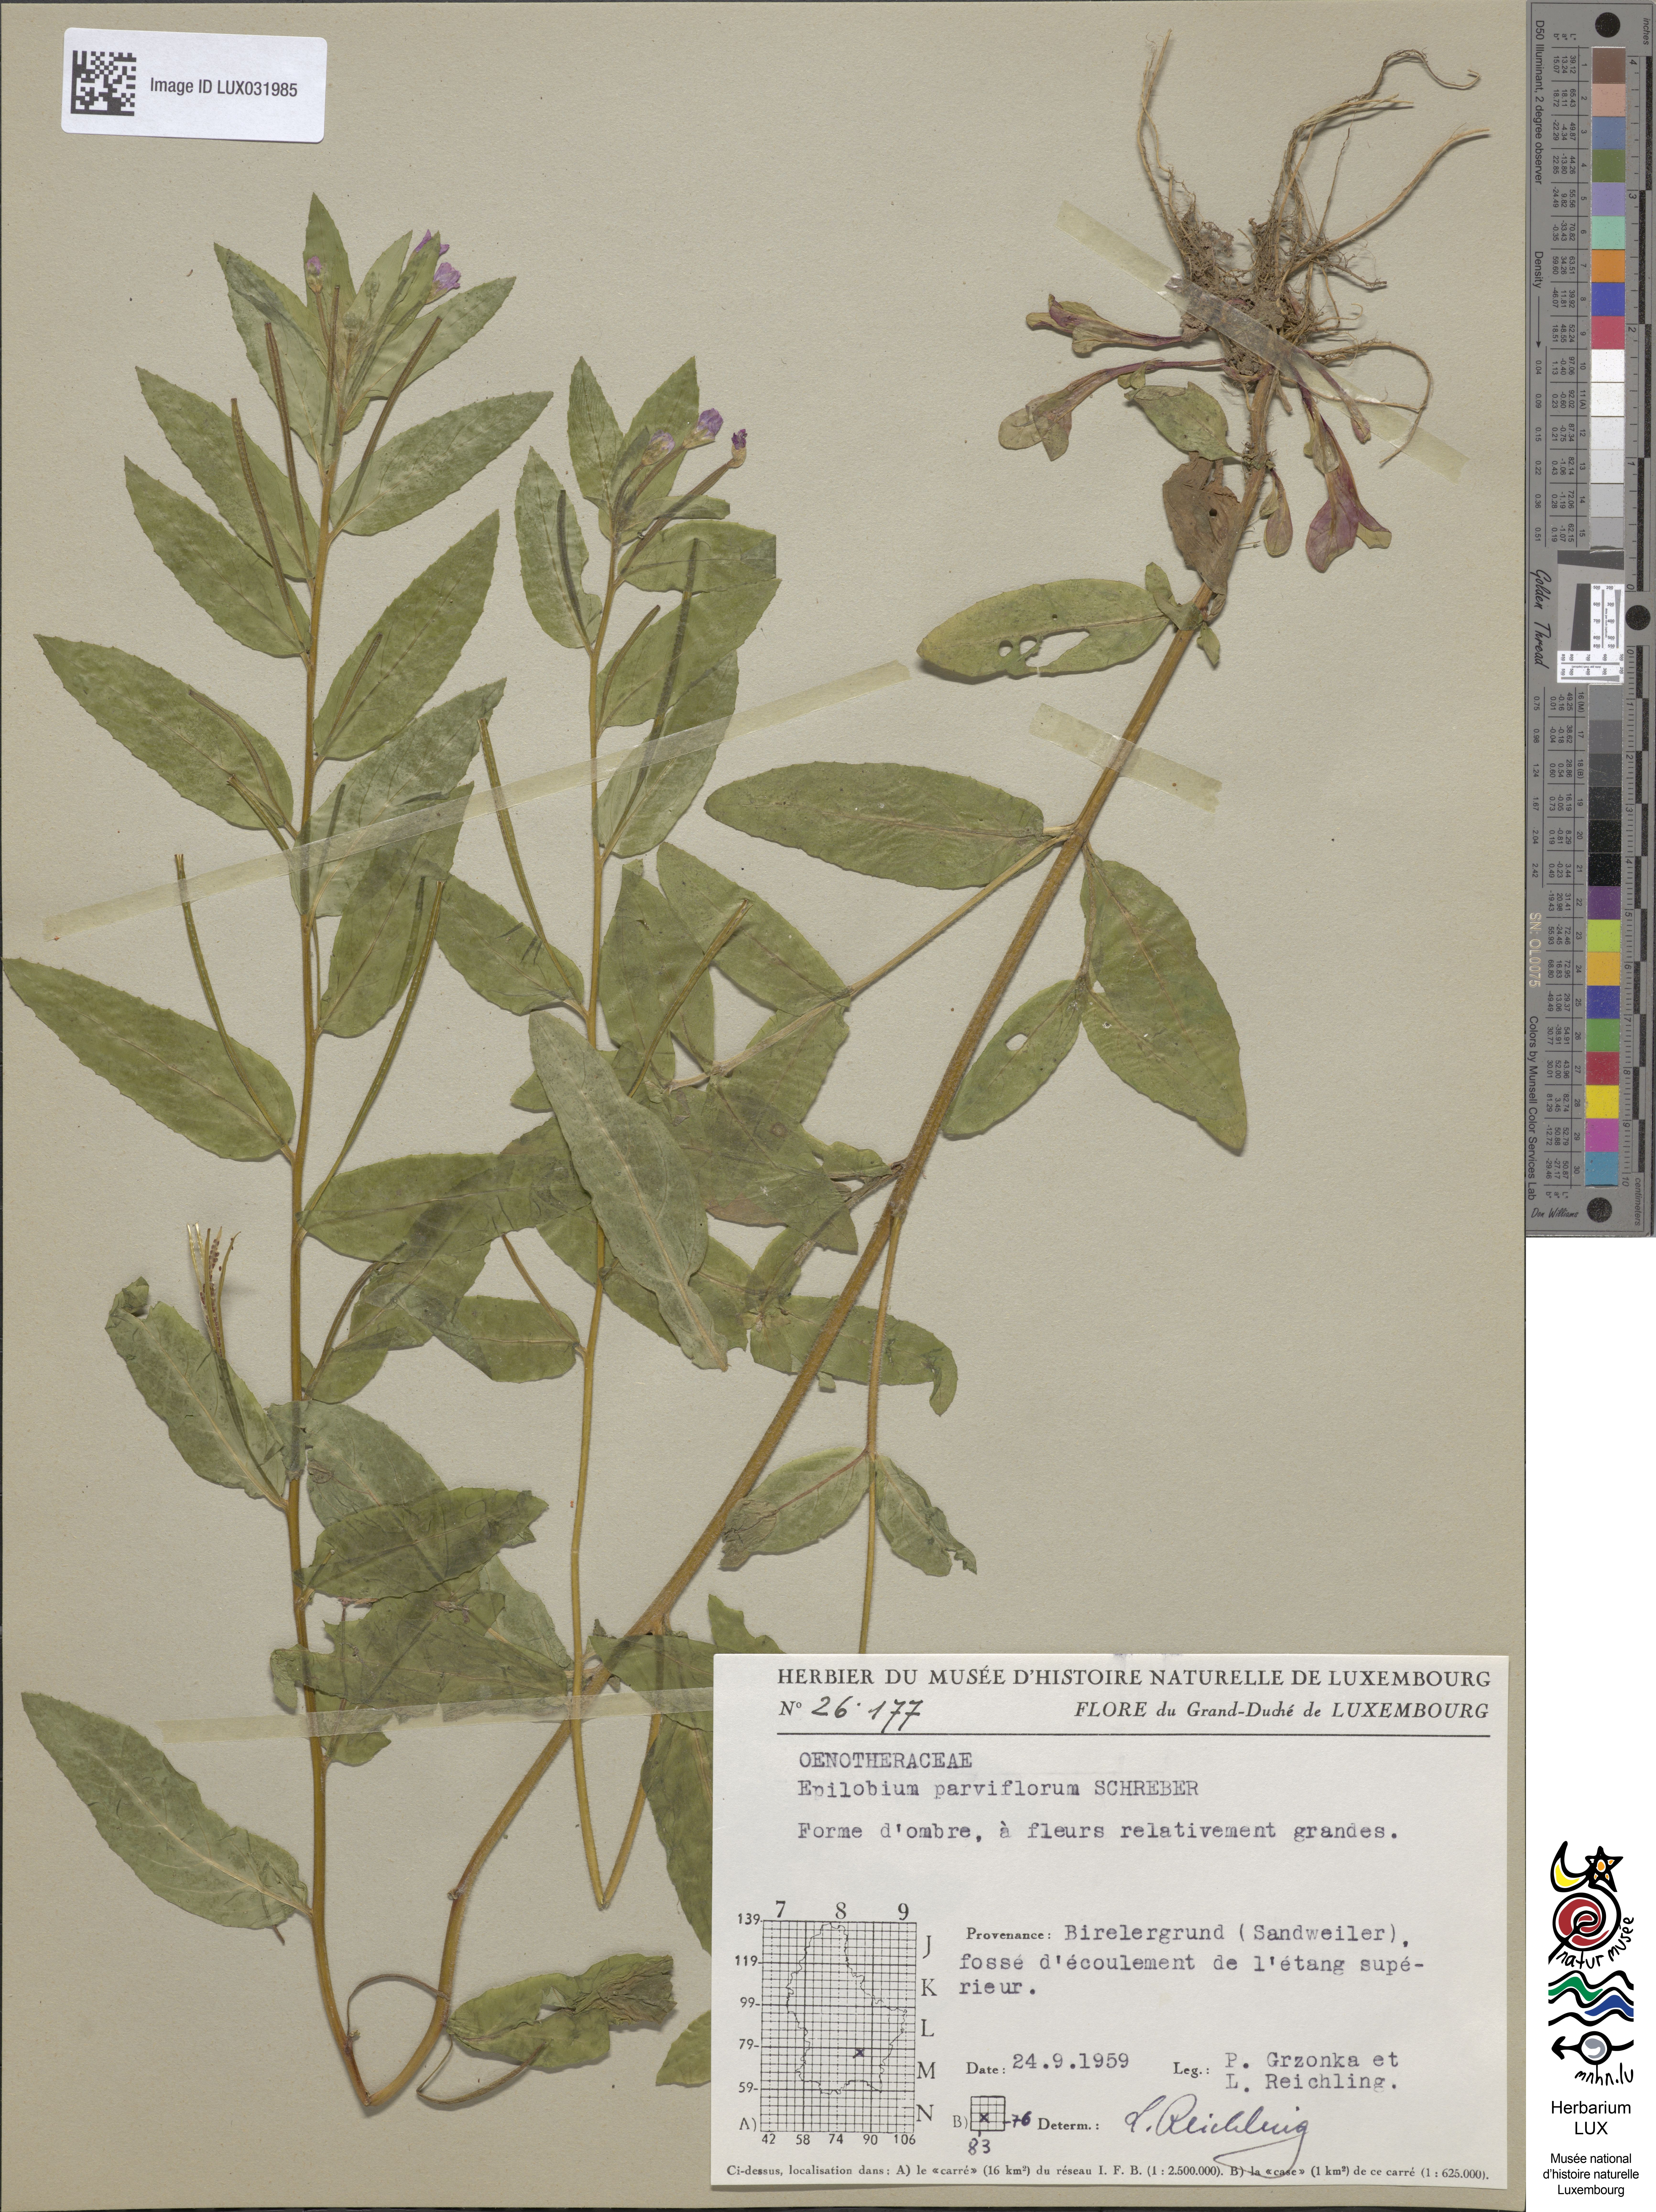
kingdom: Plantae
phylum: Tracheophyta
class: Magnoliopsida
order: Myrtales
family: Onagraceae
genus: Epilobium
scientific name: Epilobium parviflorum
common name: Hoary willowherb
